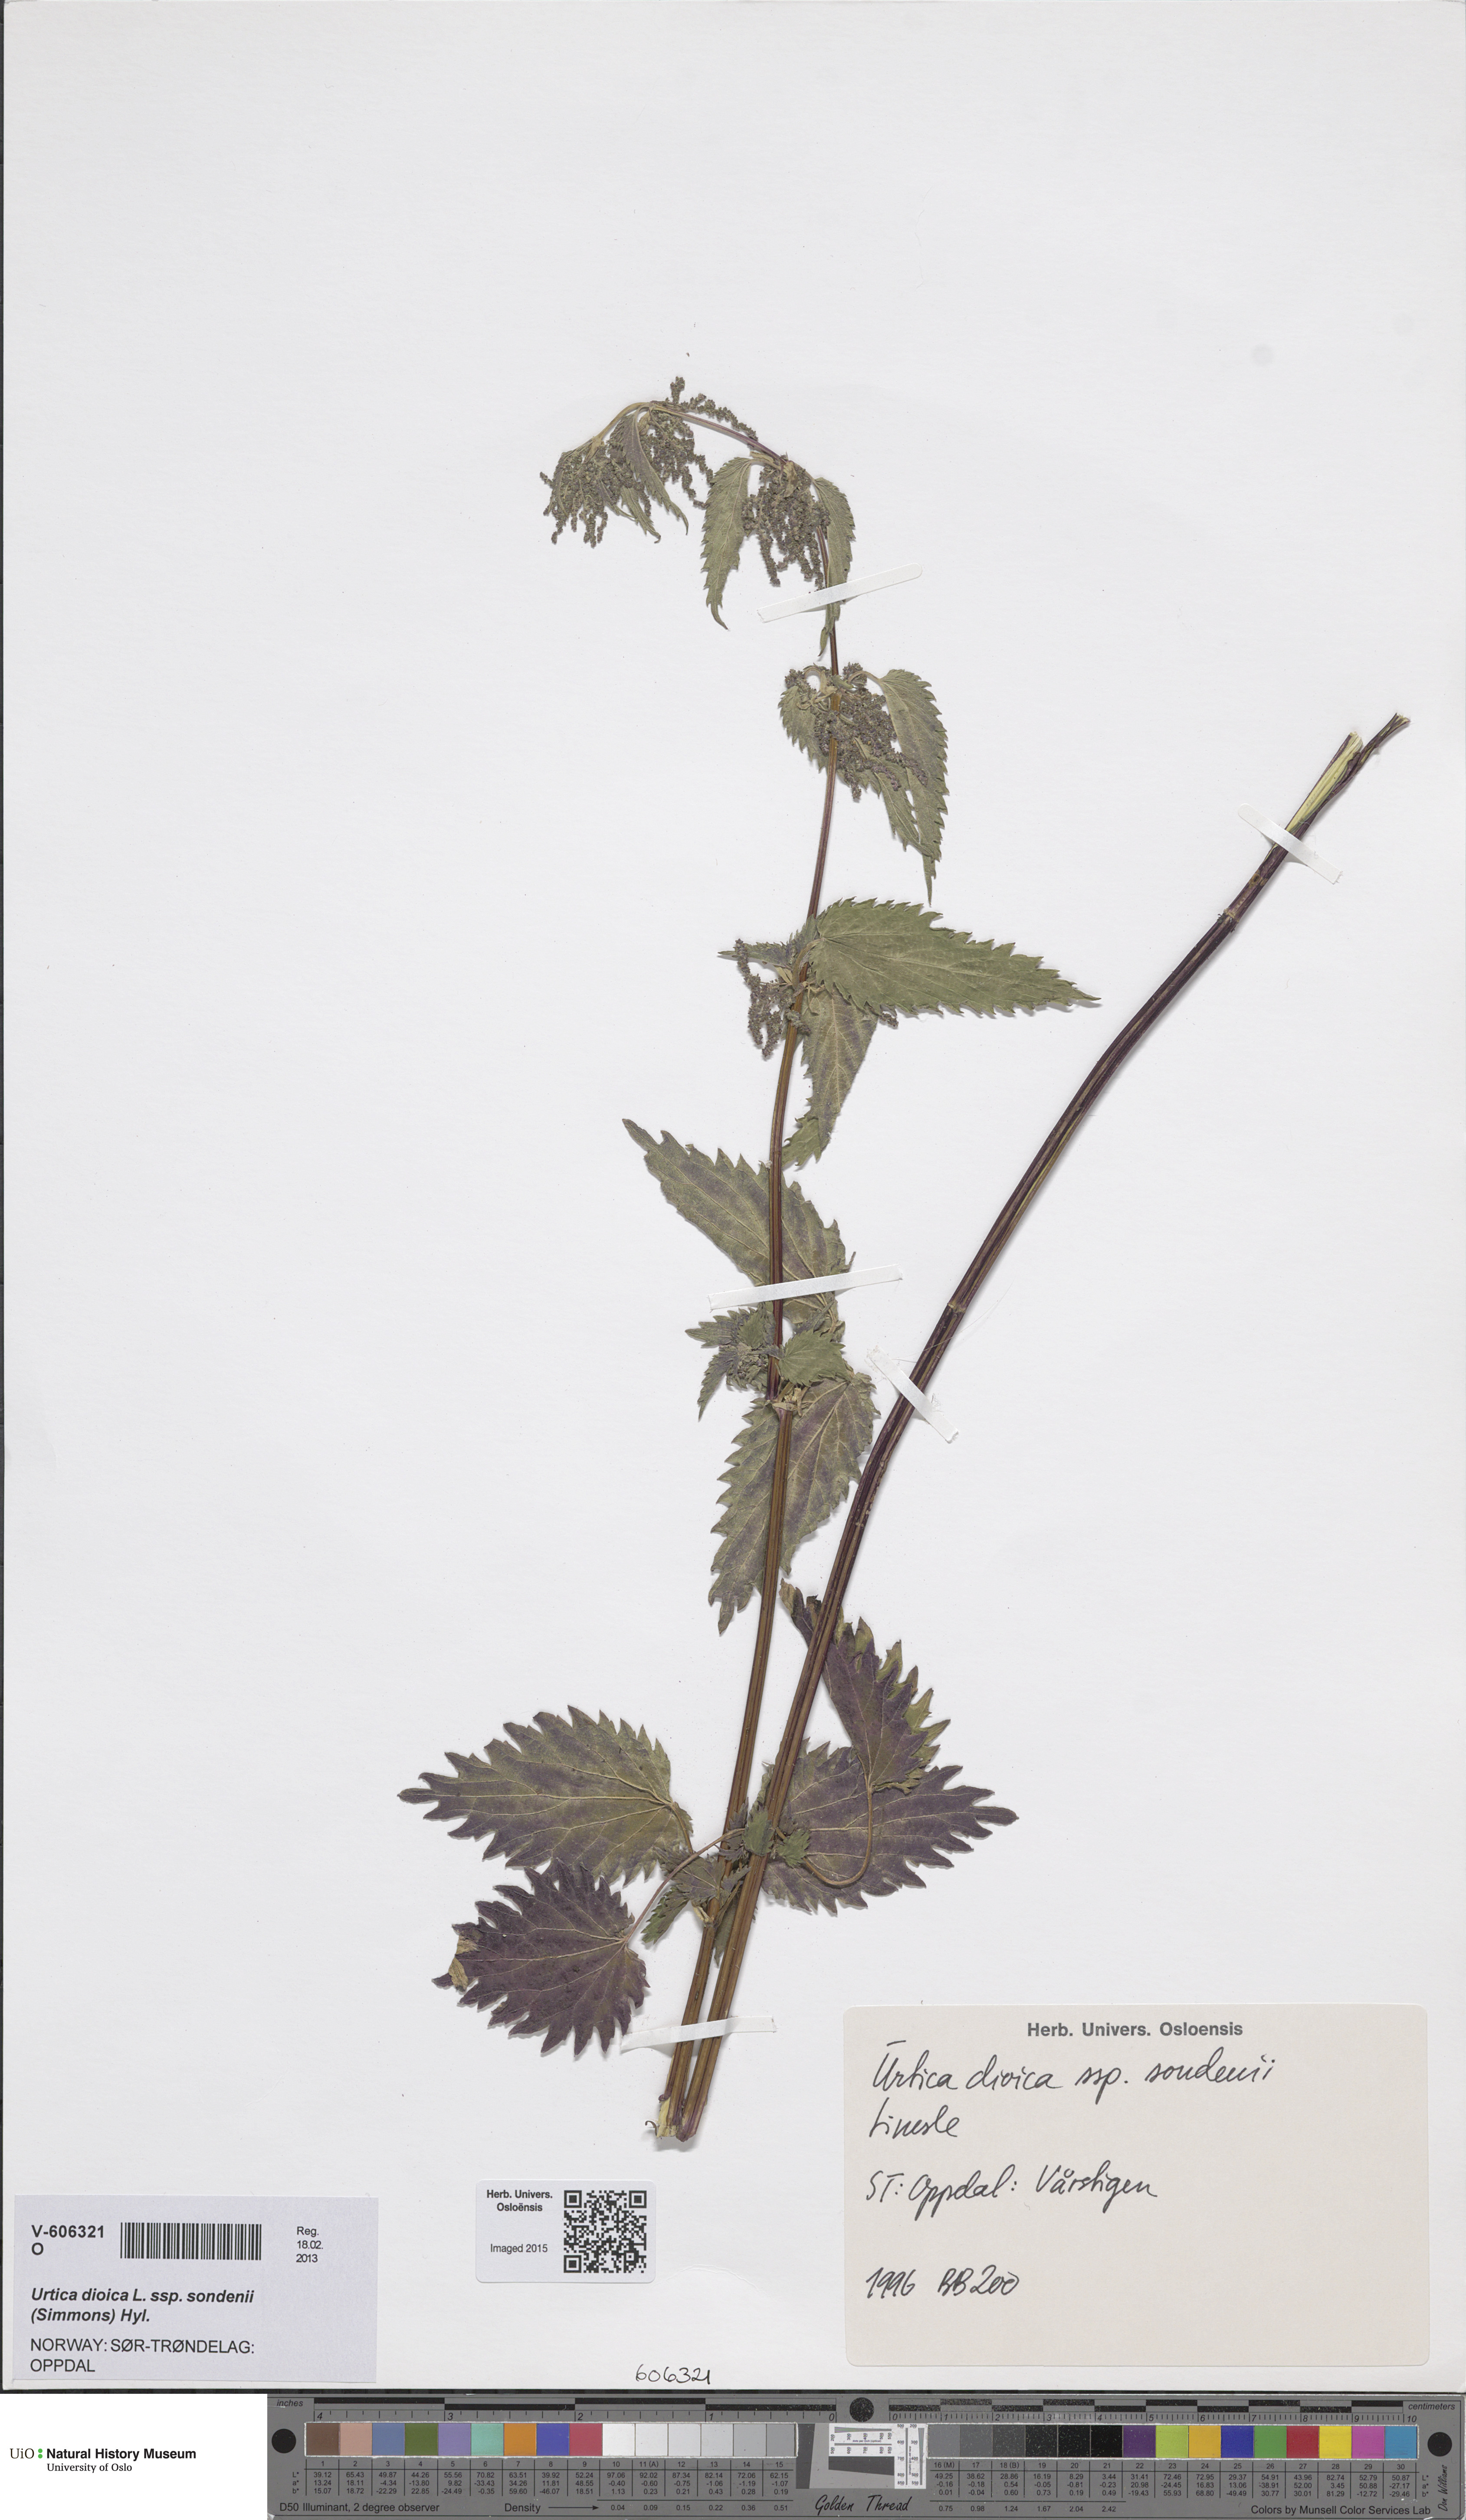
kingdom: Plantae
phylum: Tracheophyta
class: Magnoliopsida
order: Rosales
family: Urticaceae
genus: Urtica
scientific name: Urtica dioica
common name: Common nettle
